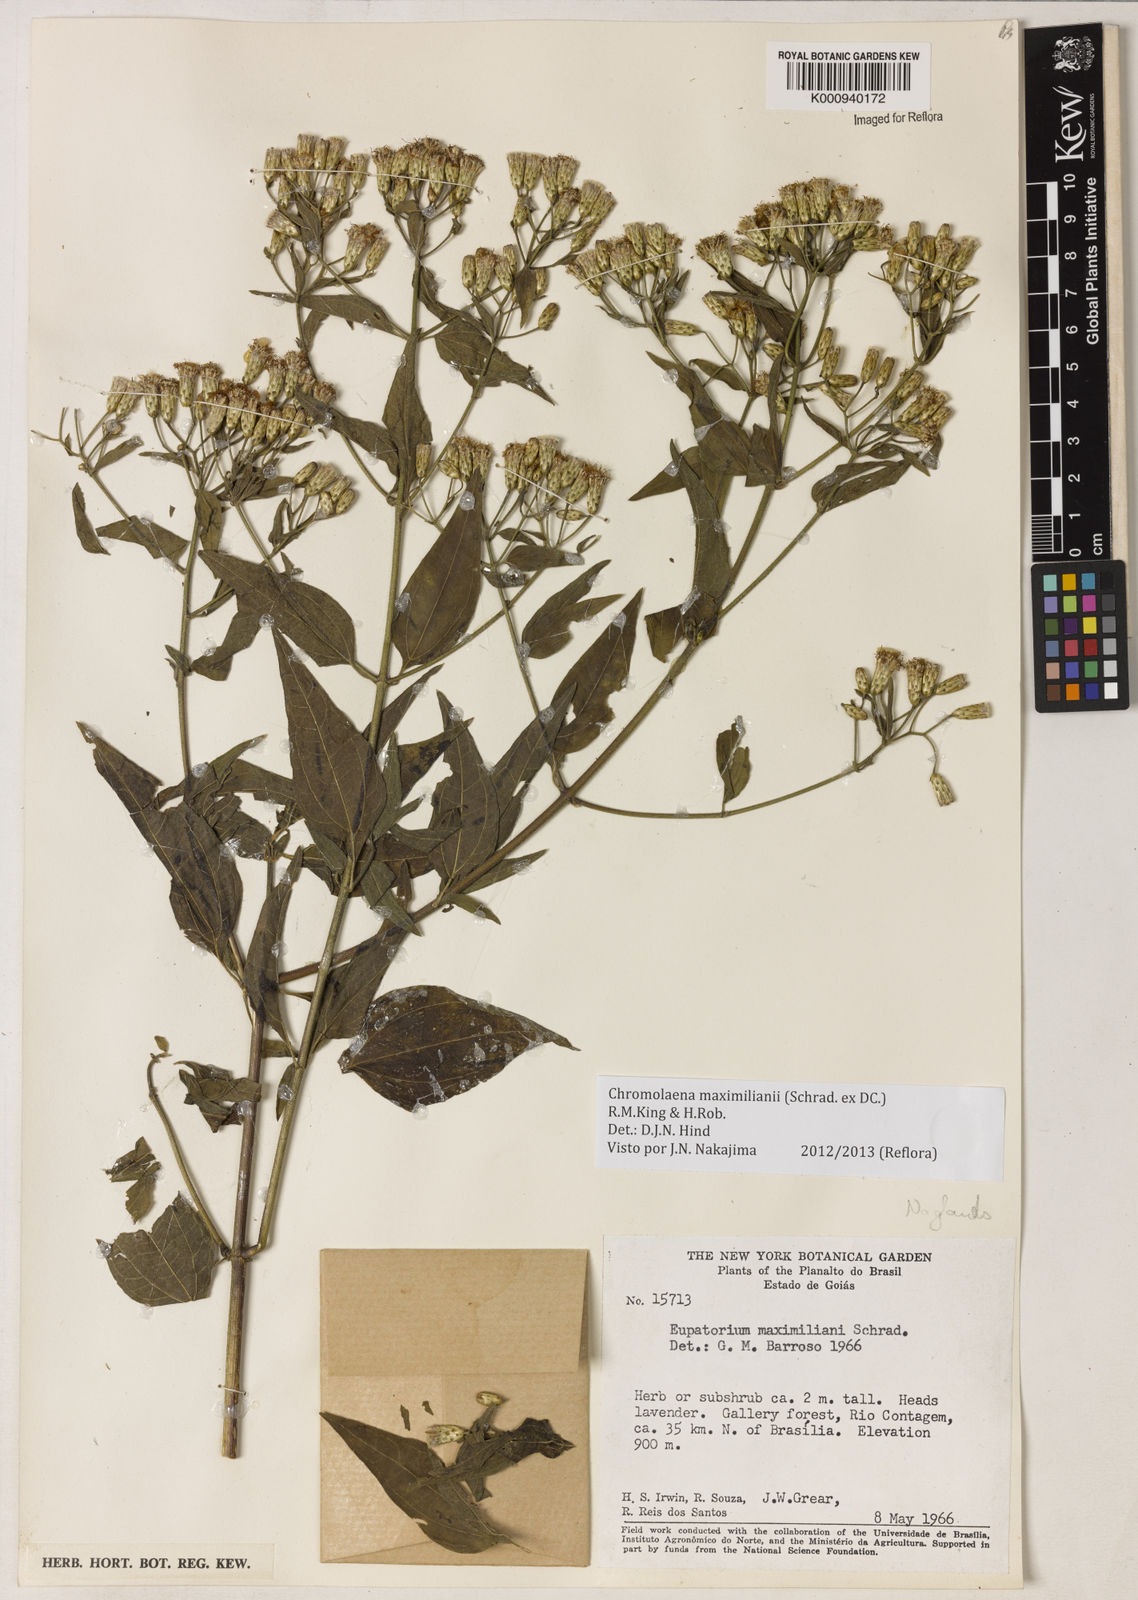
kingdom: Plantae
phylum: Tracheophyta
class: Magnoliopsida
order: Asterales
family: Asteraceae
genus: Chromolaena
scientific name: Chromolaena maximiliani
